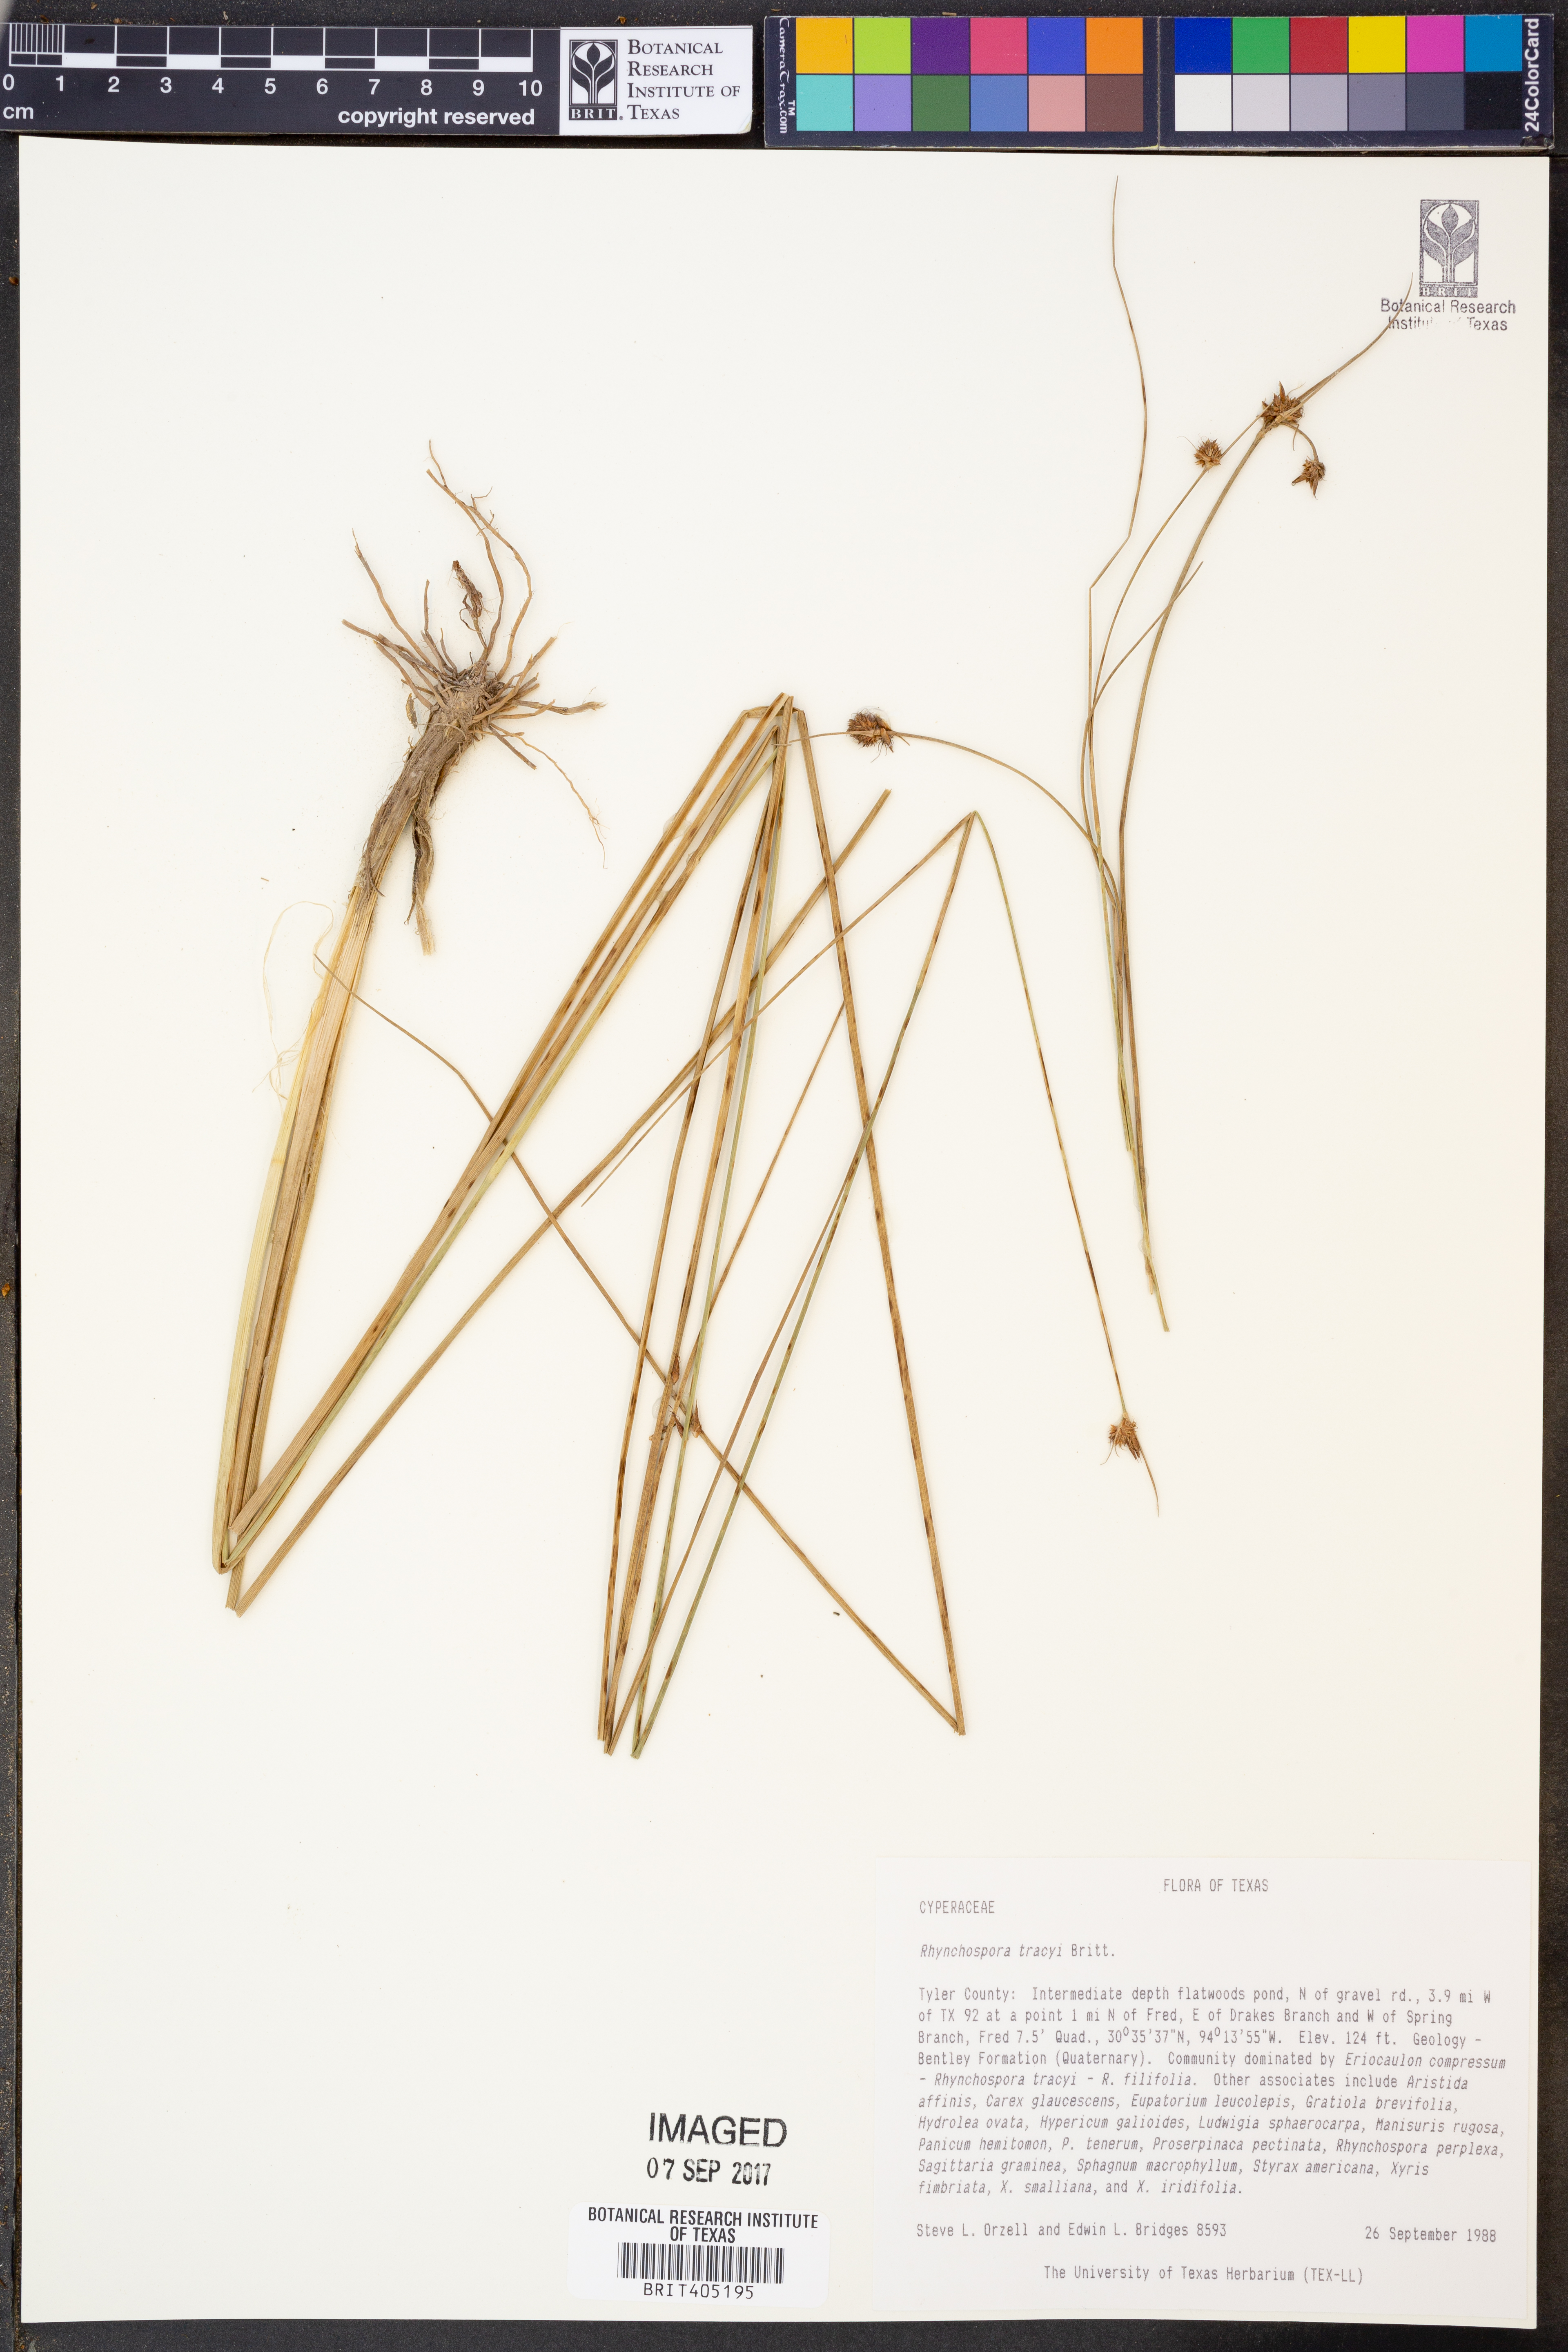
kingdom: Plantae
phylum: Tracheophyta
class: Liliopsida
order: Poales
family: Cyperaceae
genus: Rhynchospora
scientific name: Rhynchospora tracyi
